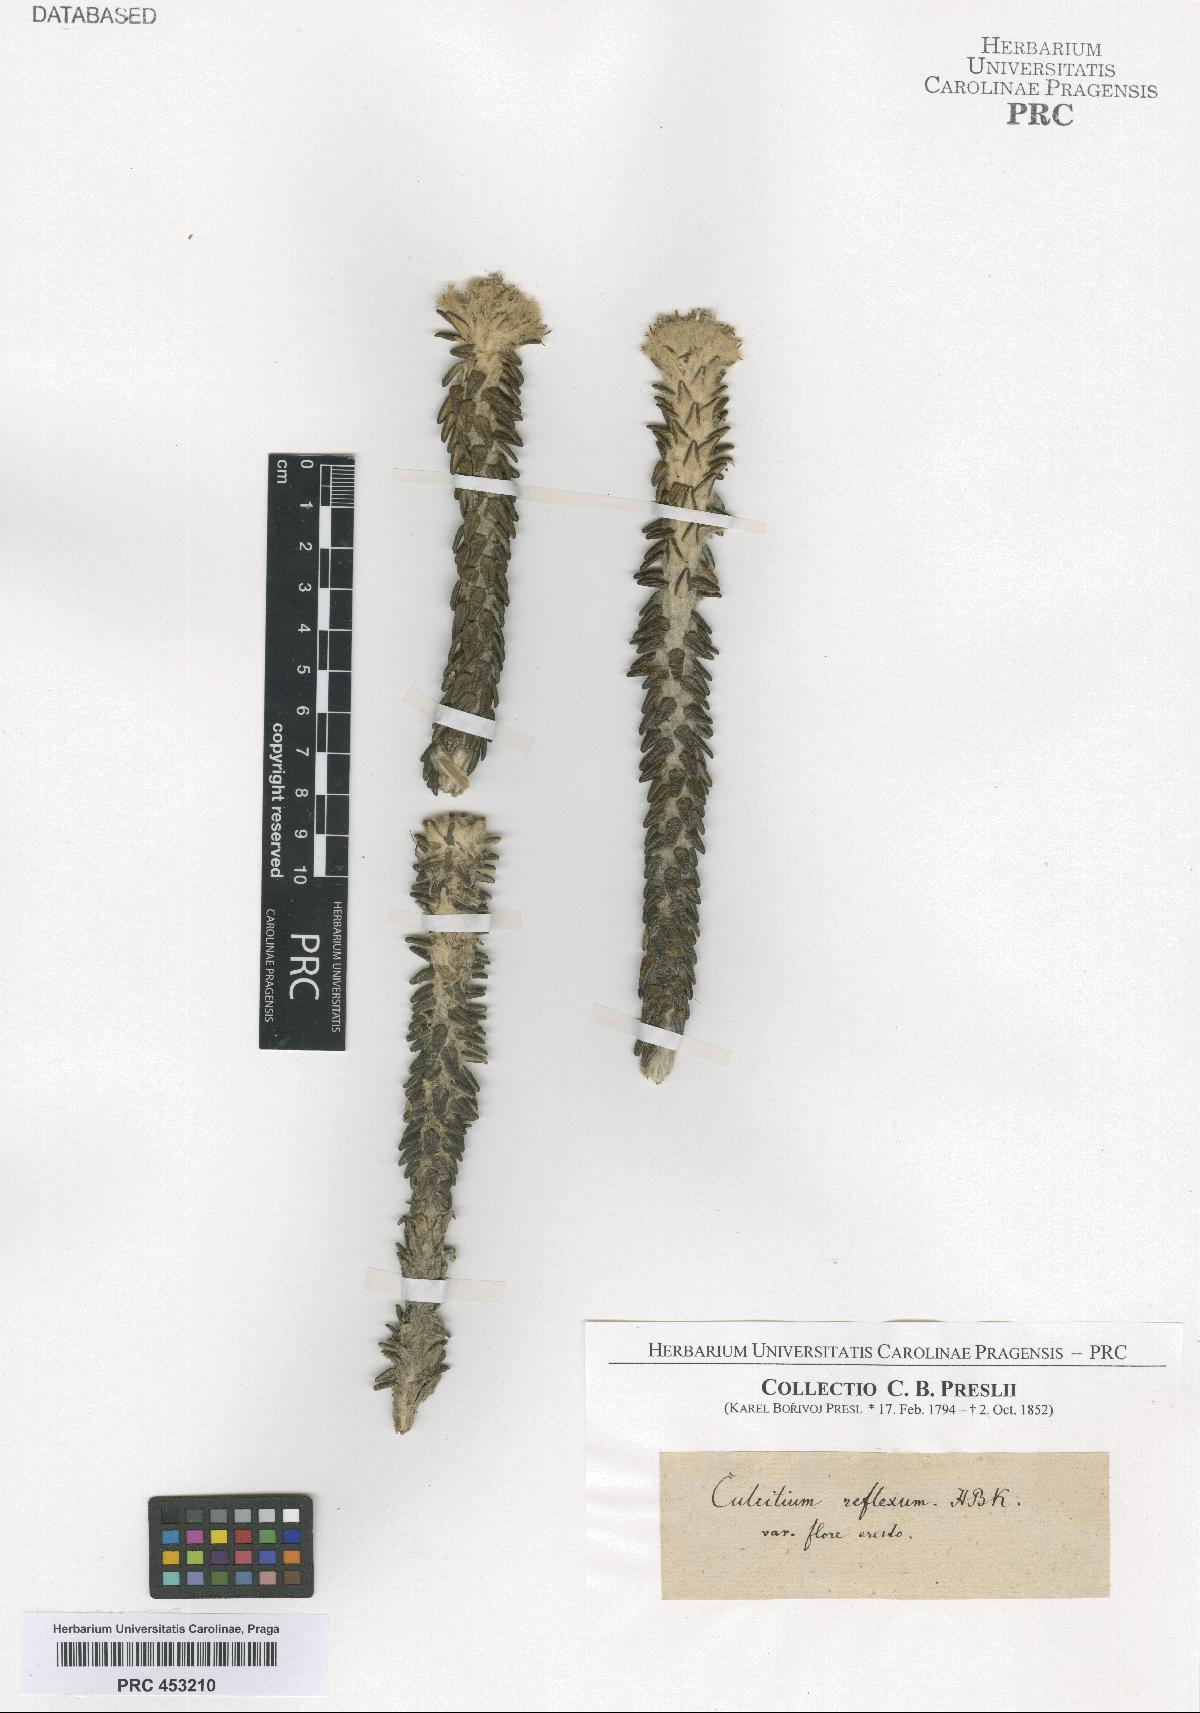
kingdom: Plantae
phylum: Tracheophyta
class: Magnoliopsida
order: Asterales
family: Asteraceae
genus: Lasiocephalus
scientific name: Lasiocephalus ovatus
